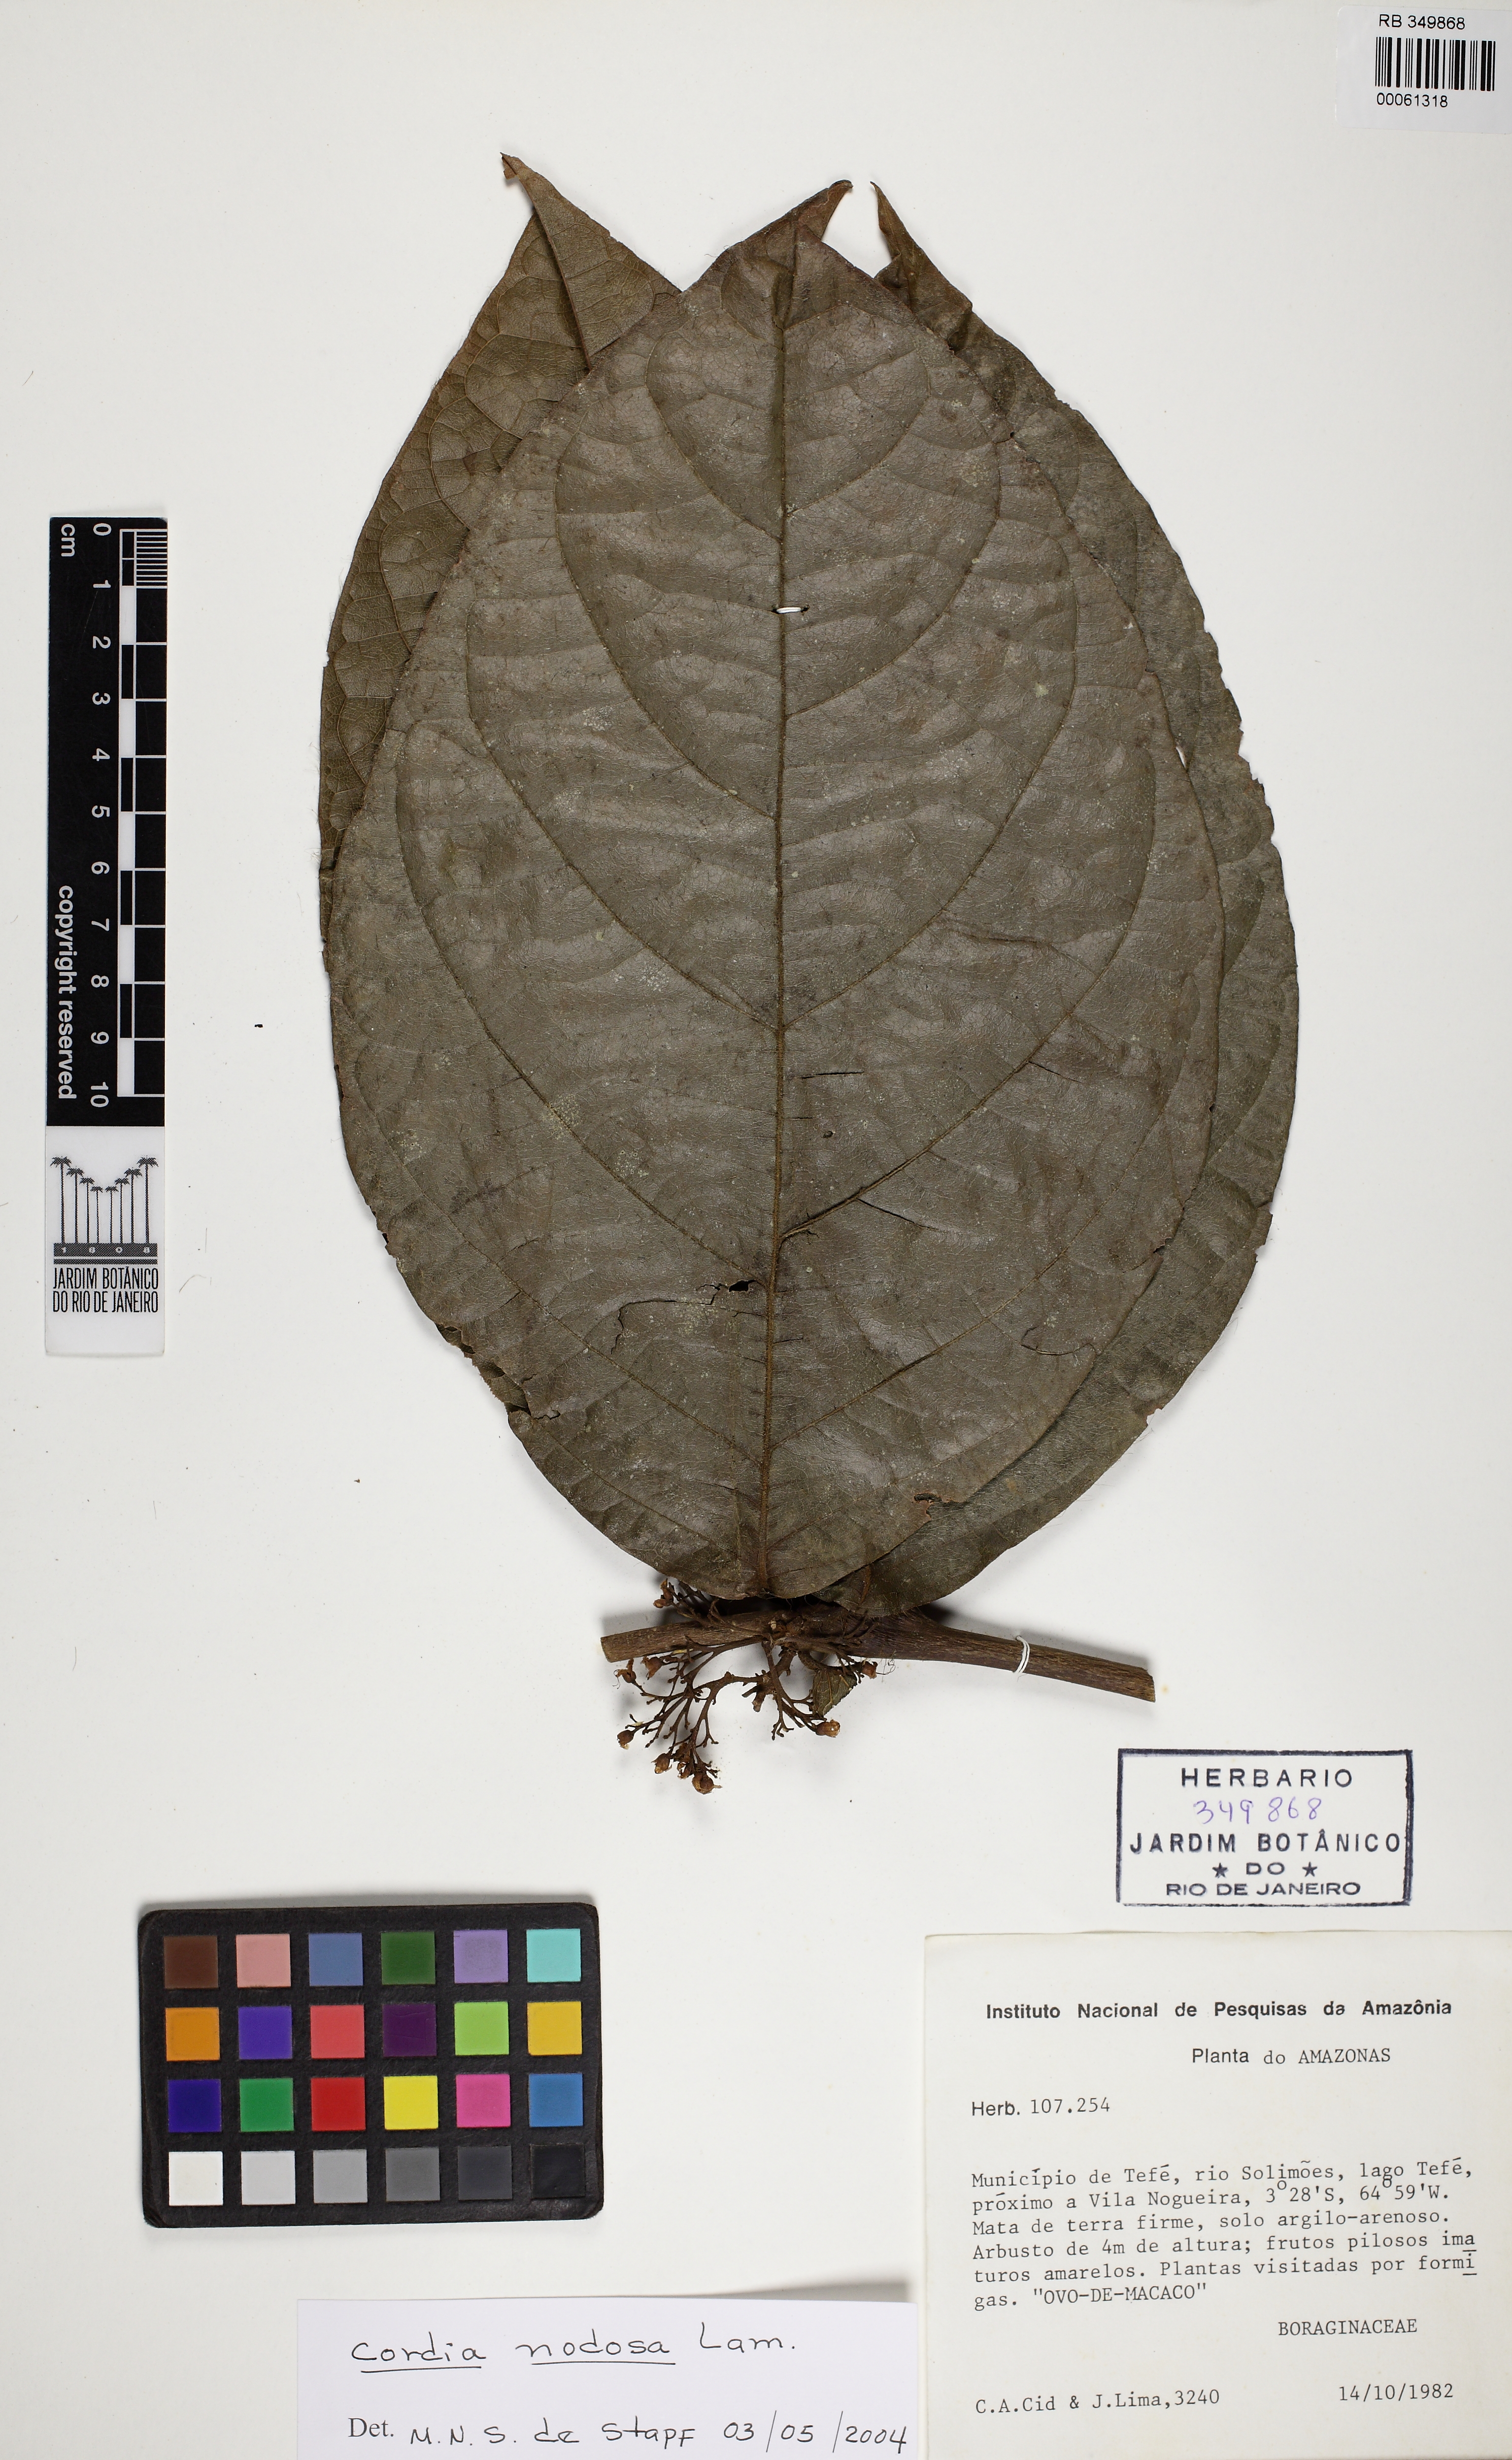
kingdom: Plantae
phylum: Tracheophyta
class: Magnoliopsida
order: Boraginales
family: Cordiaceae
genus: Cordia
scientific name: Cordia nodosa
